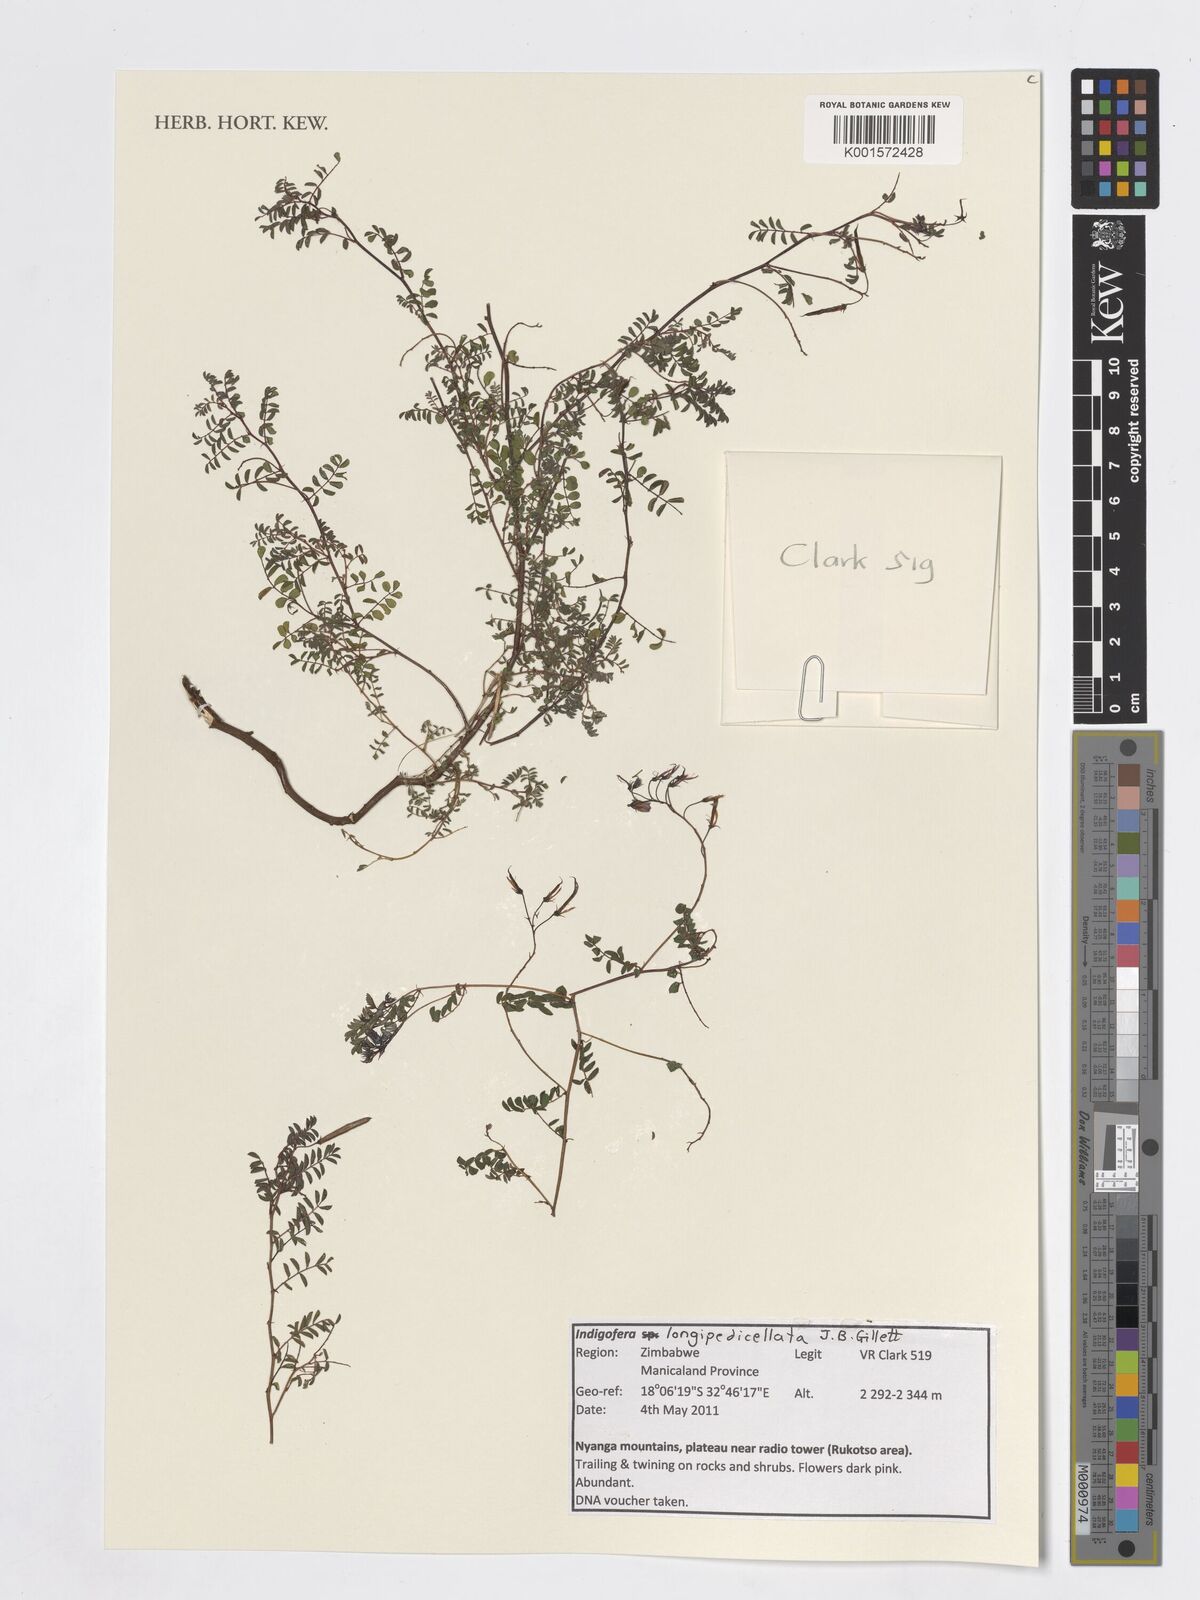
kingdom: Plantae
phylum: Tracheophyta
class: Magnoliopsida
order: Fabales
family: Fabaceae
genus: Indigofera
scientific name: Indigofera longipedicellata
